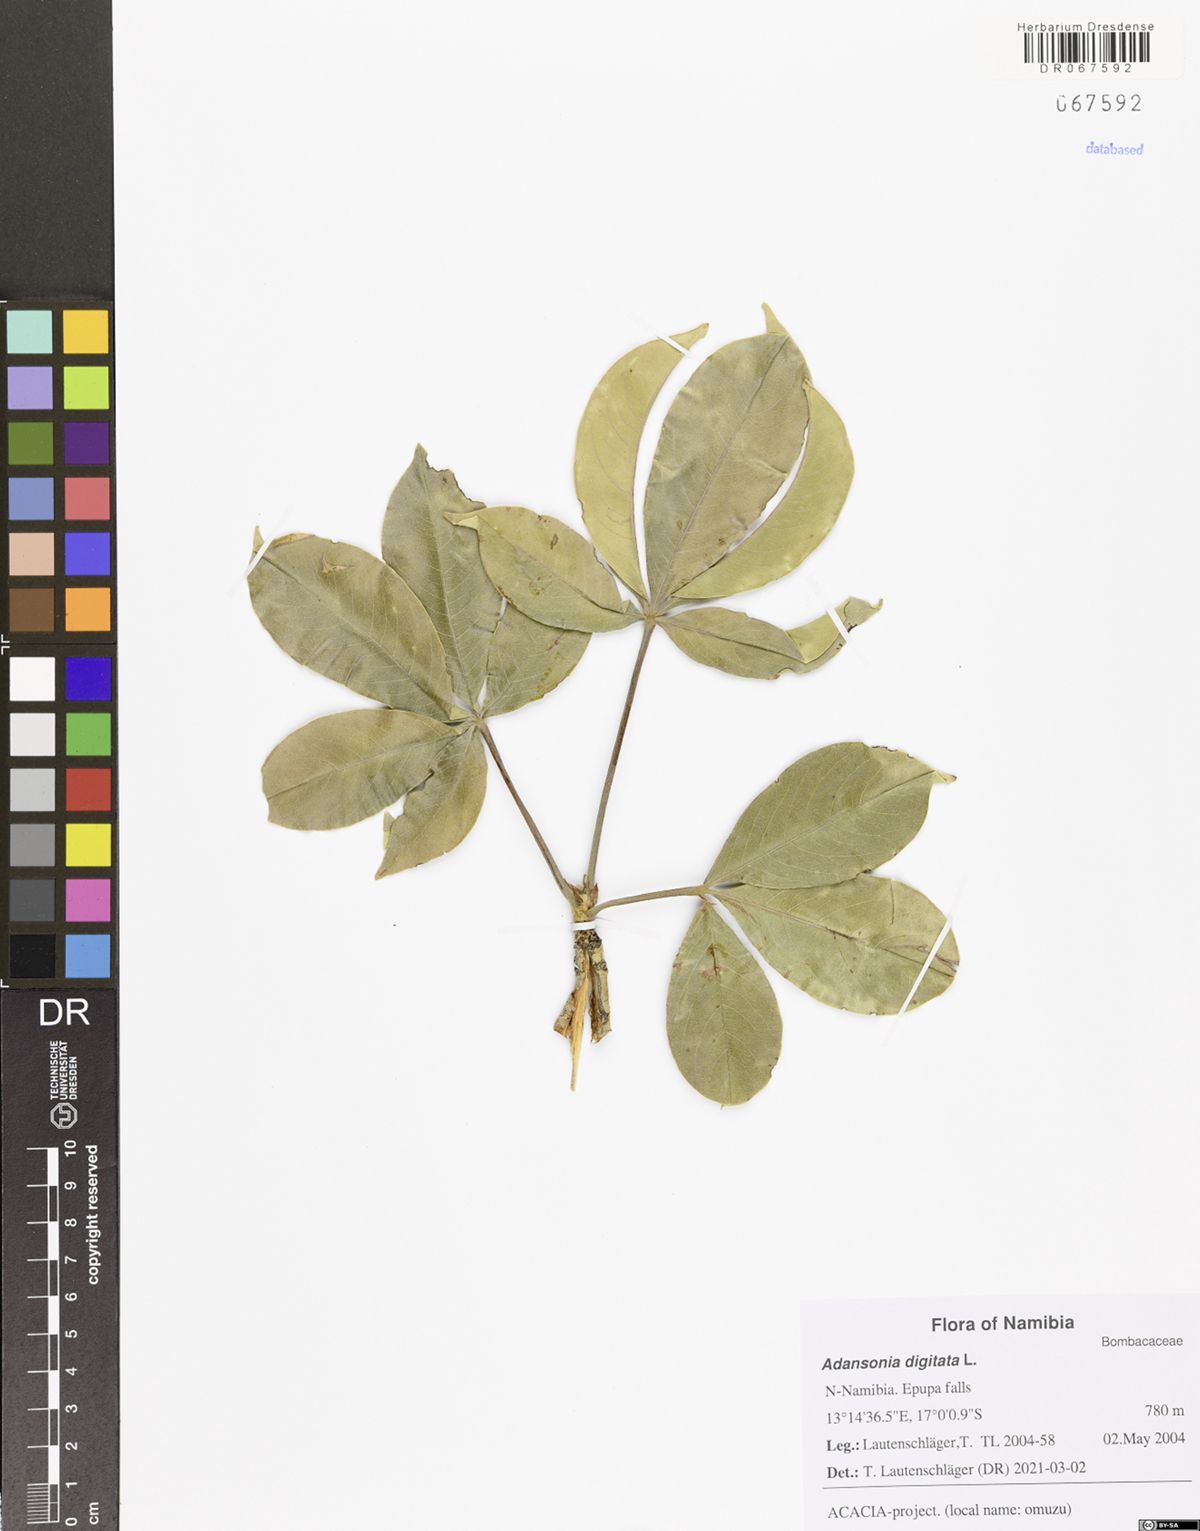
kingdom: Plantae
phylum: Tracheophyta
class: Magnoliopsida
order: Malvales
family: Malvaceae
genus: Adansonia
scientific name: Adansonia digitata
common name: Dead-rat-tree
